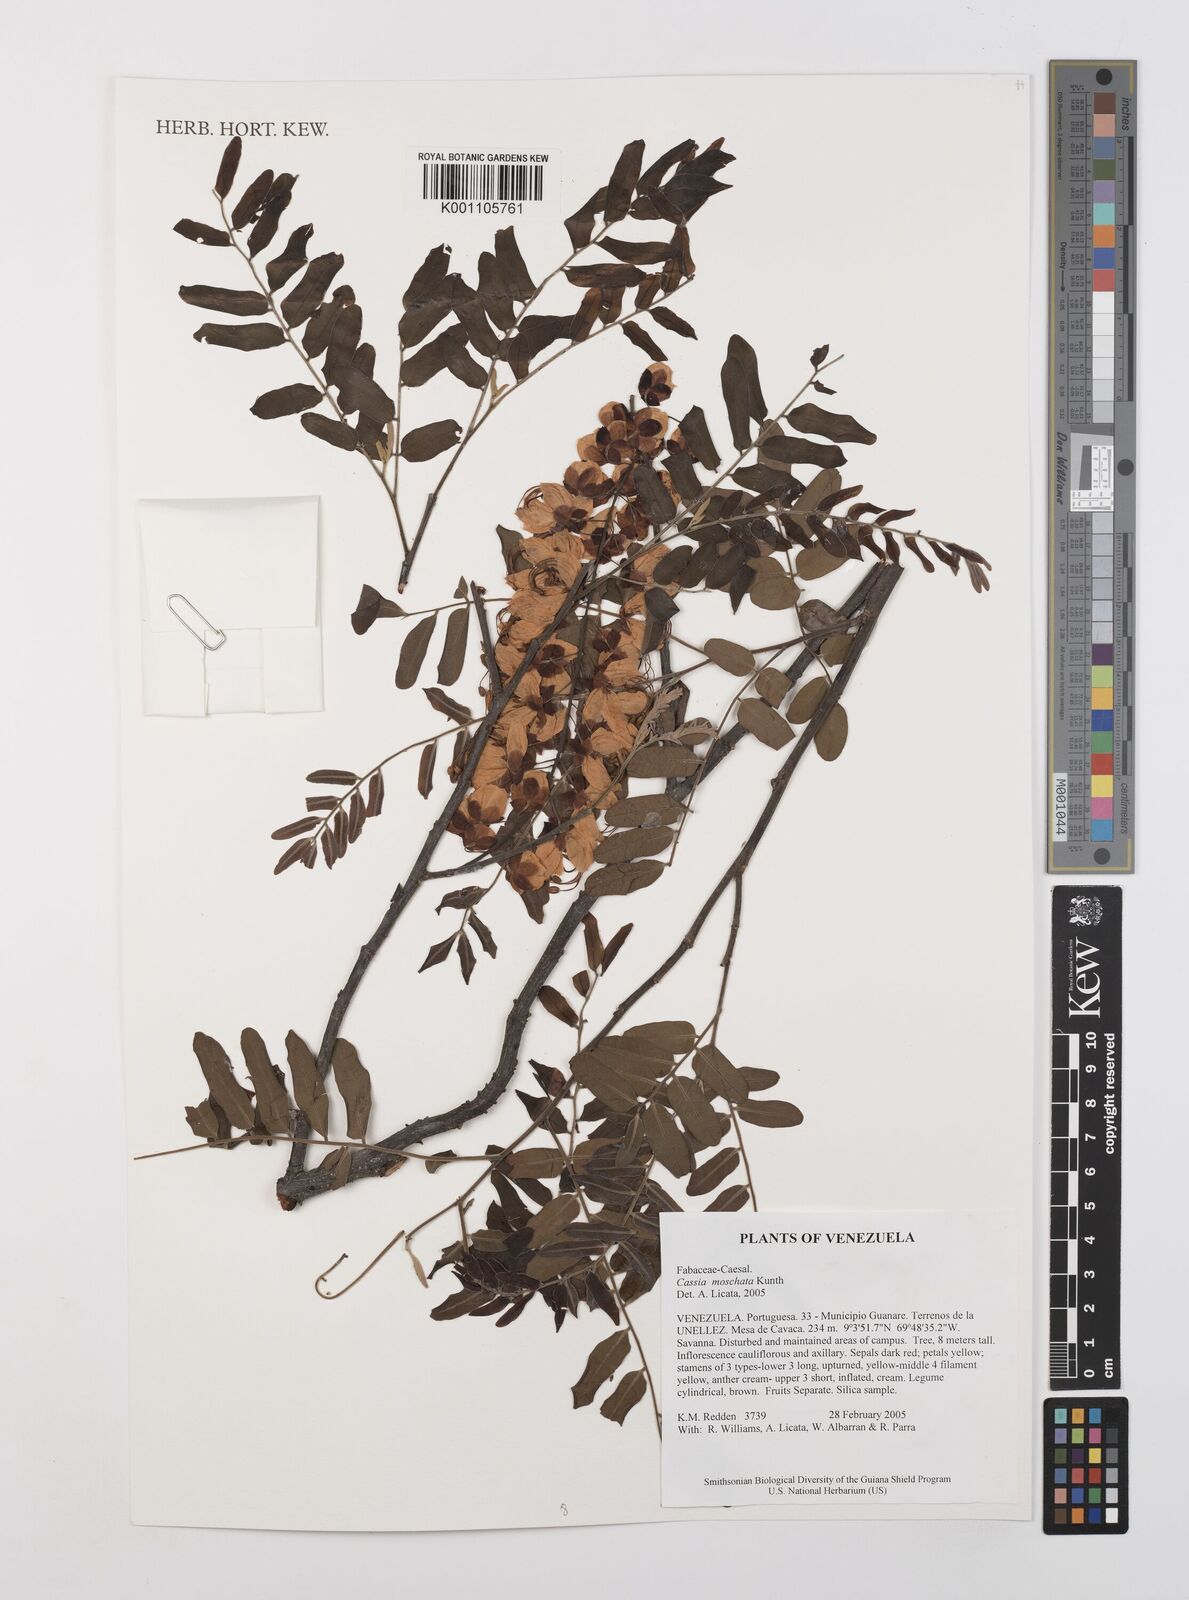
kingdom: Plantae
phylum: Tracheophyta
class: Magnoliopsida
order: Fabales
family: Fabaceae
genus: Cassia
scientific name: Cassia moschata
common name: Bronze shower tree
